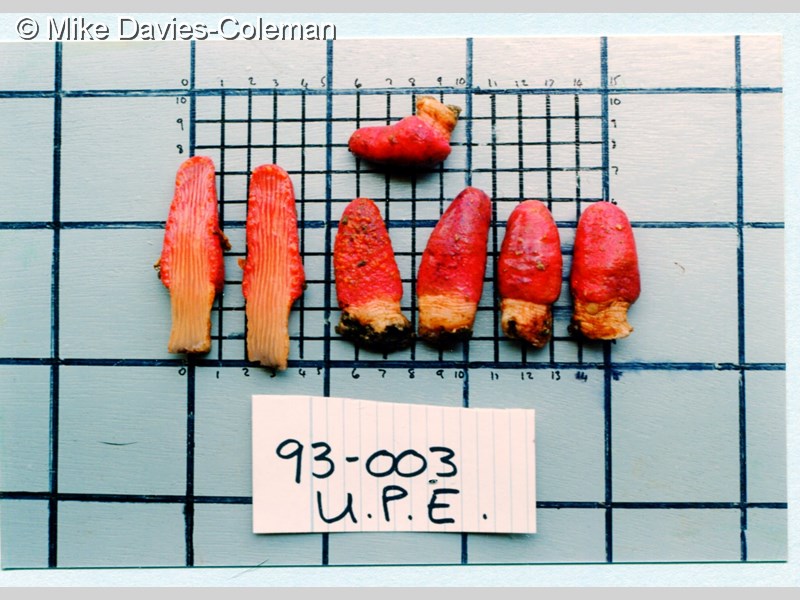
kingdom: Animalia
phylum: Cnidaria
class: Anthozoa
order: Malacalcyonacea
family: Acrophytidae
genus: Acrophytum
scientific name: Acrophytum claviger
